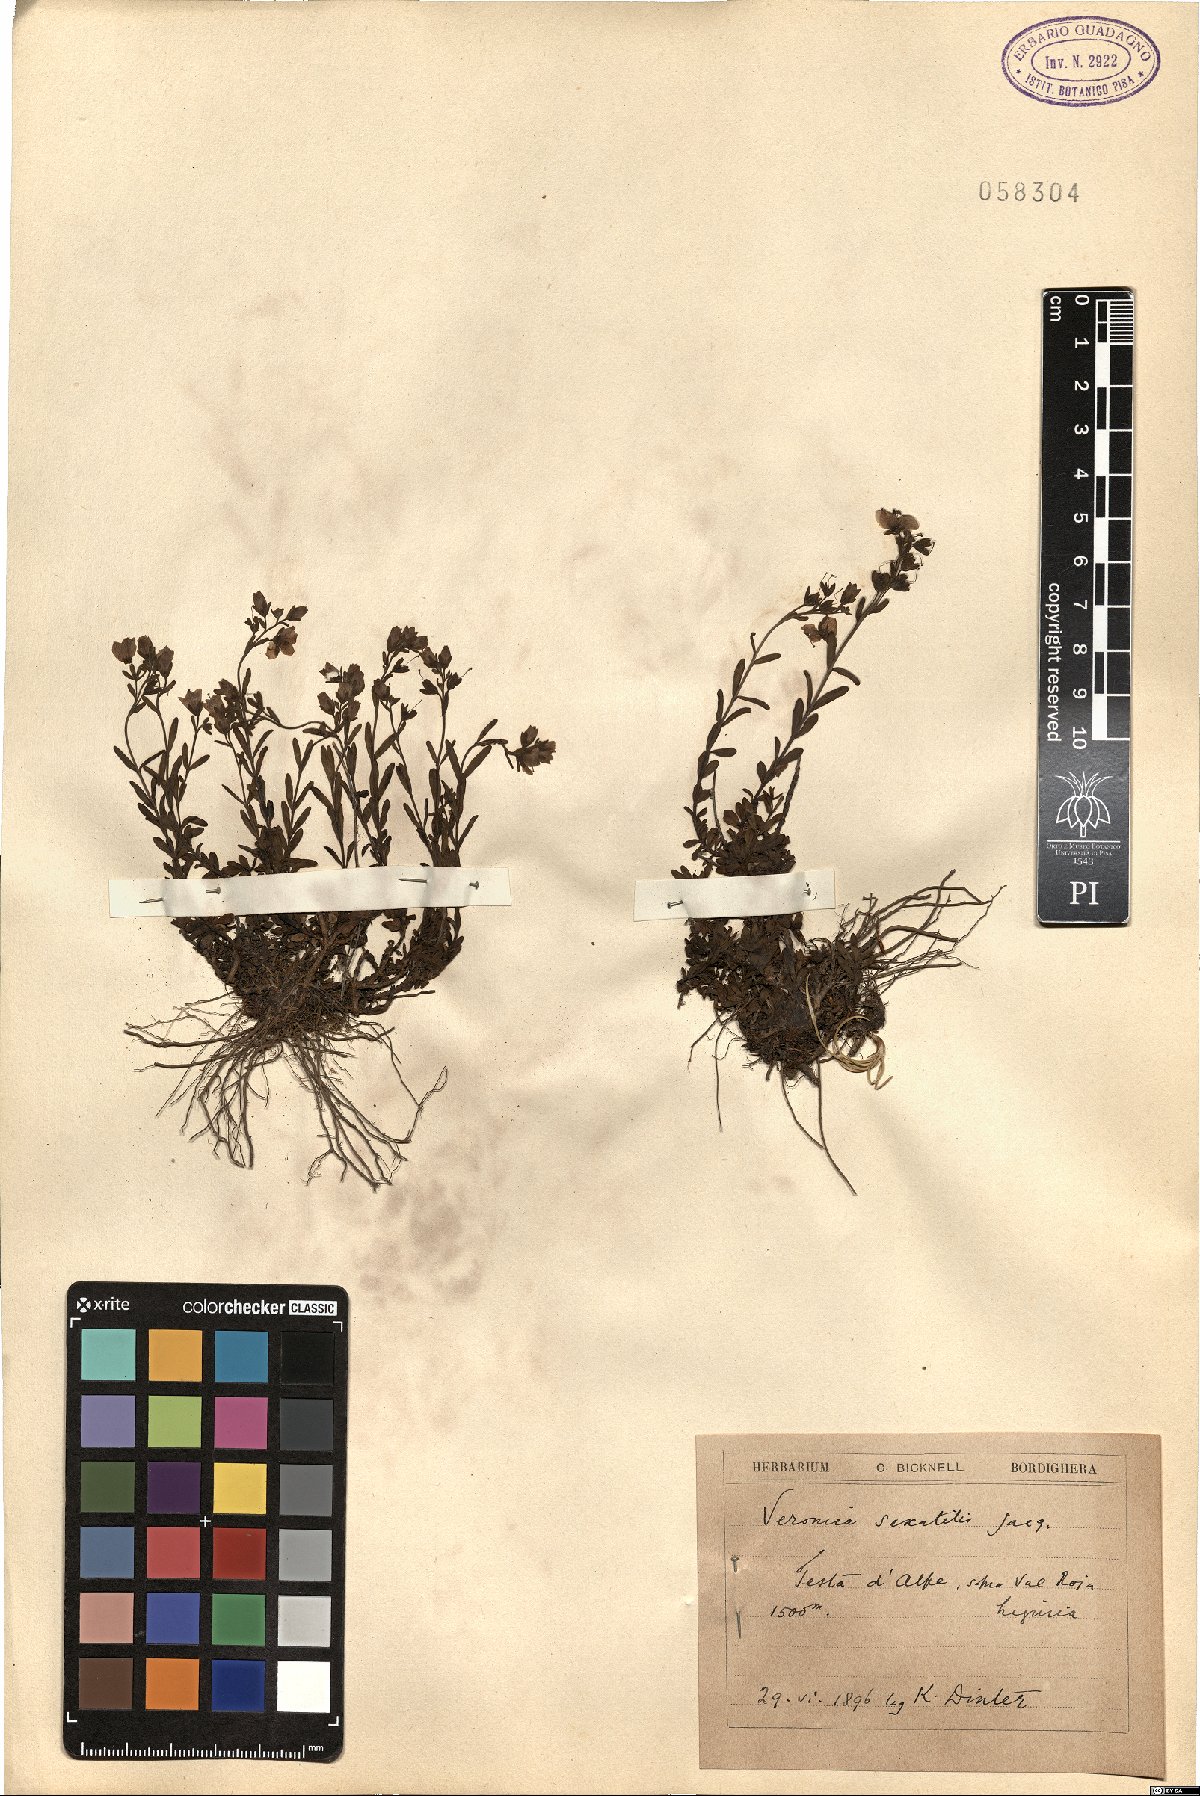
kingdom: Plantae
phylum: Tracheophyta
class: Magnoliopsida
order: Lamiales
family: Plantaginaceae
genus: Veronica
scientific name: Veronica fruticans
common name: Rock speedwell
